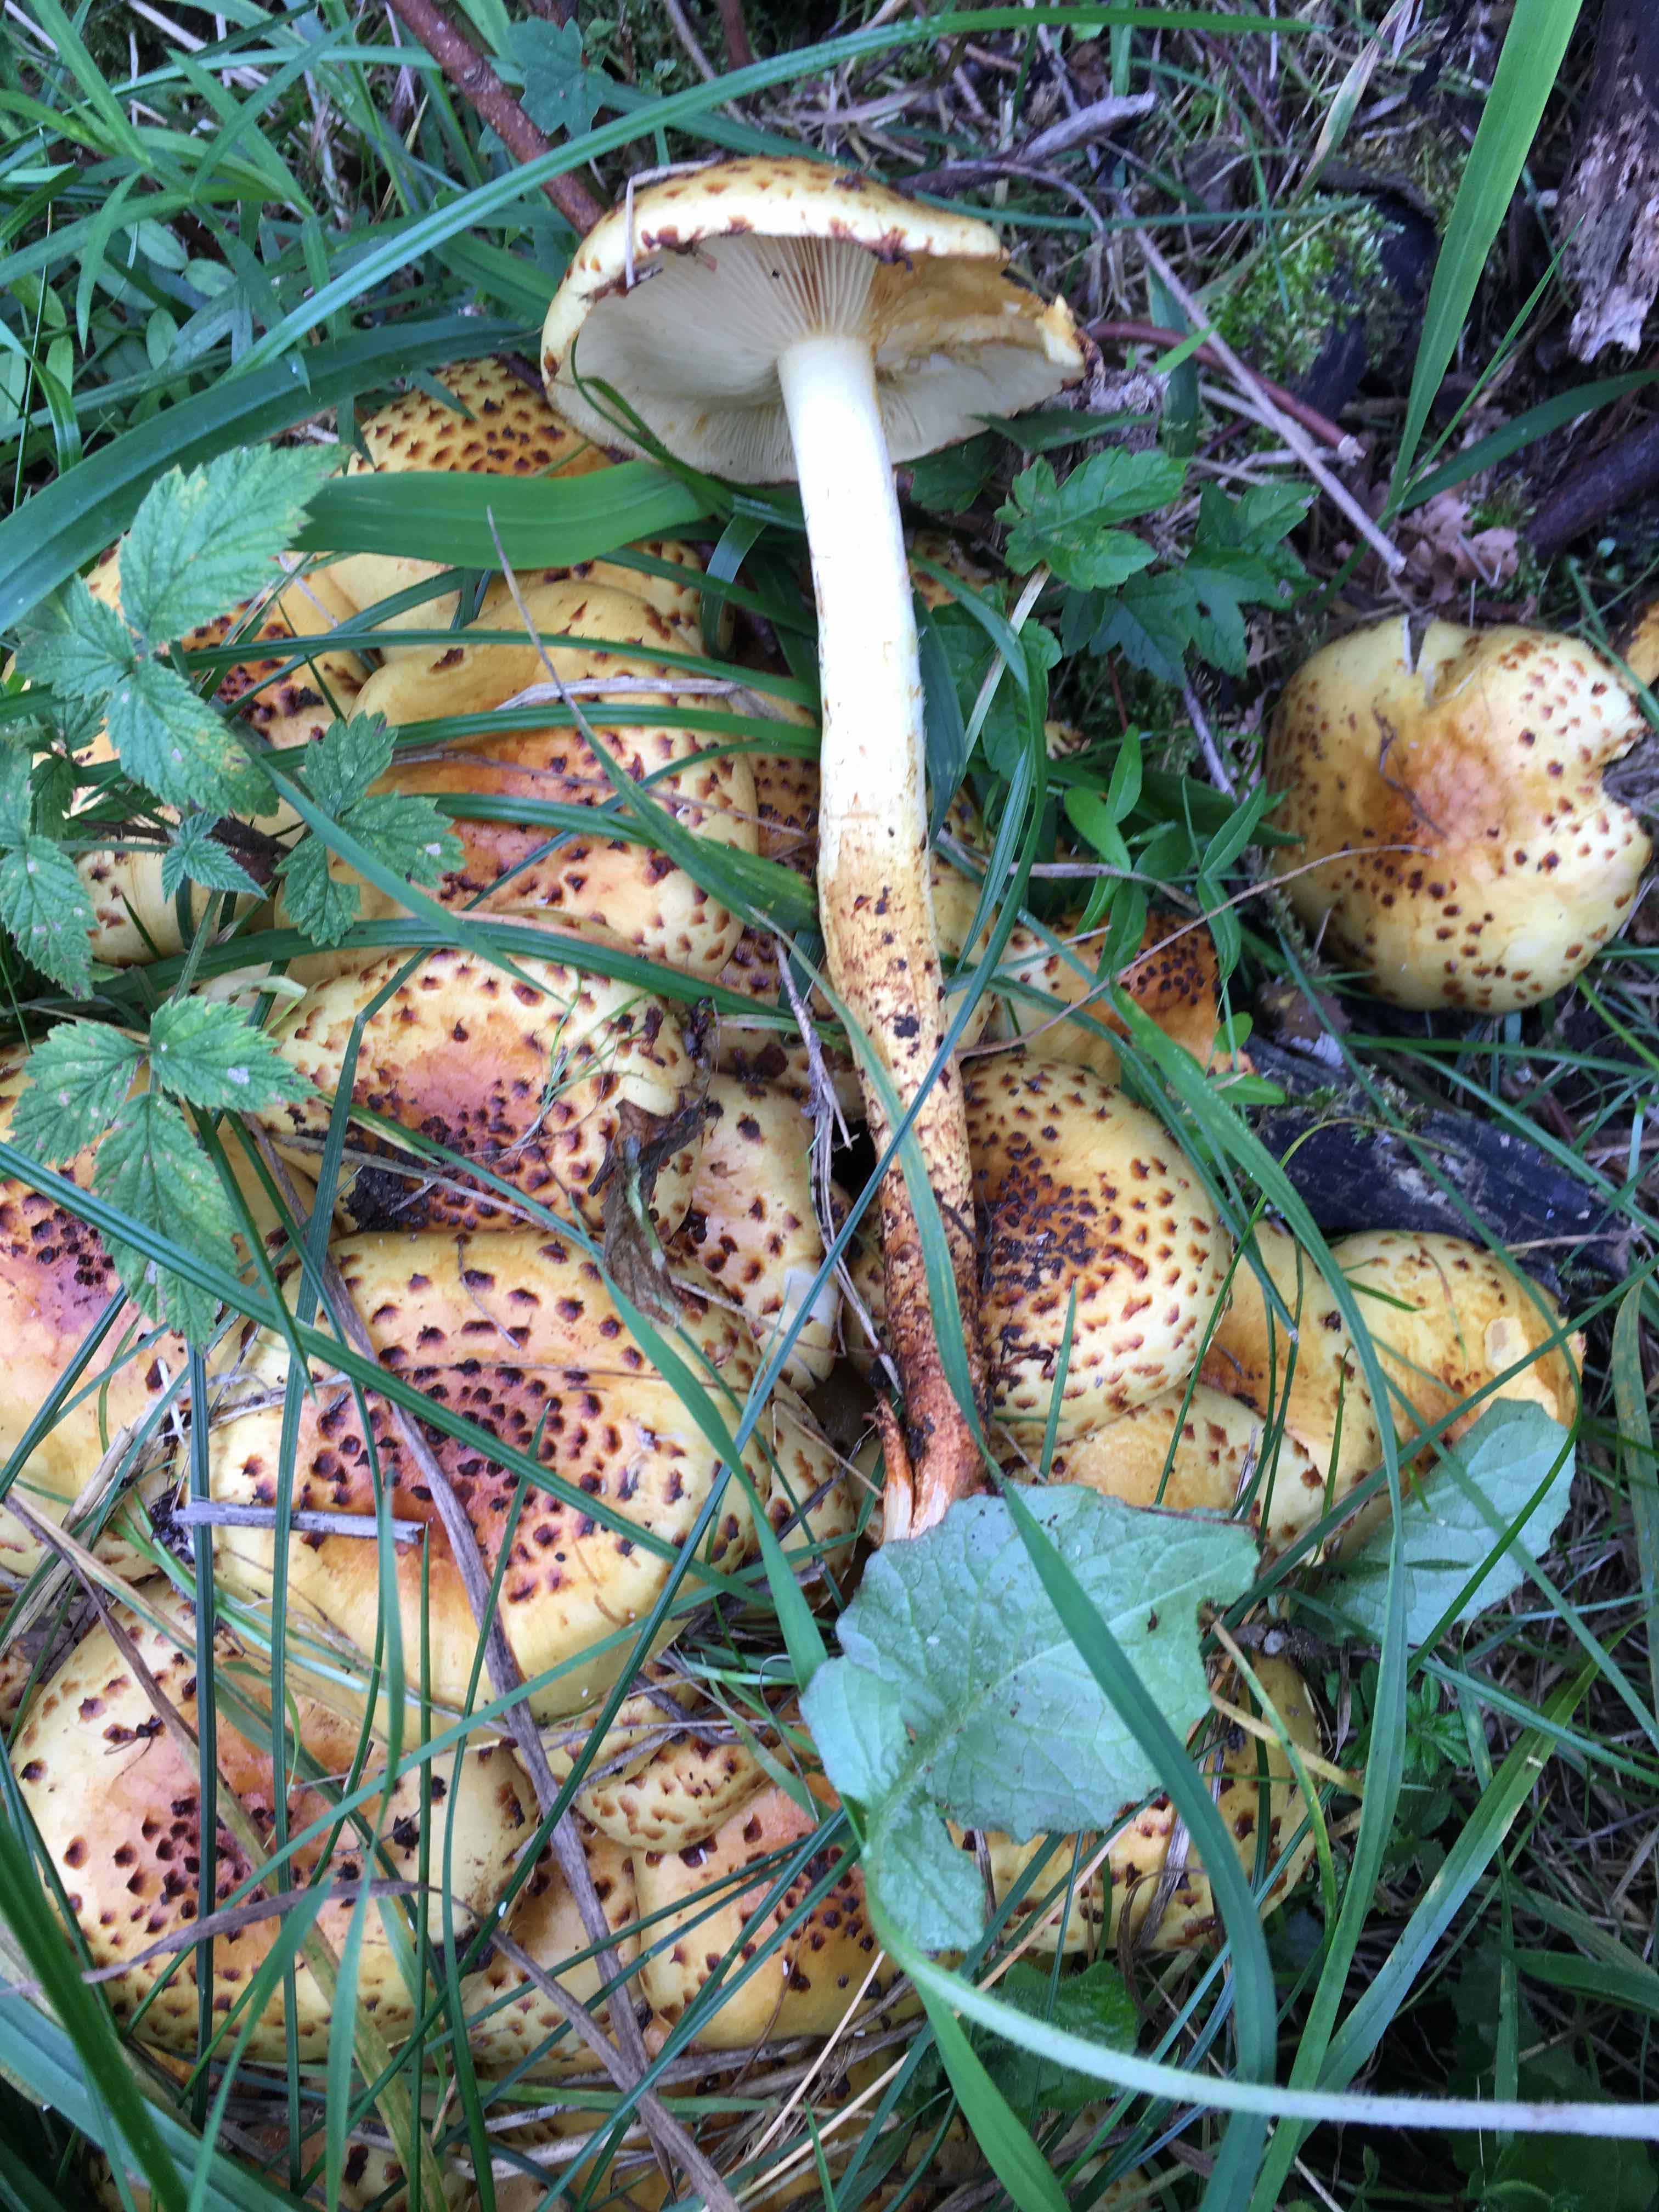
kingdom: Fungi
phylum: Basidiomycota
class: Agaricomycetes
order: Agaricales
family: Strophariaceae
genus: Pholiota
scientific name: Pholiota jahnii
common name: slimet skælhat
